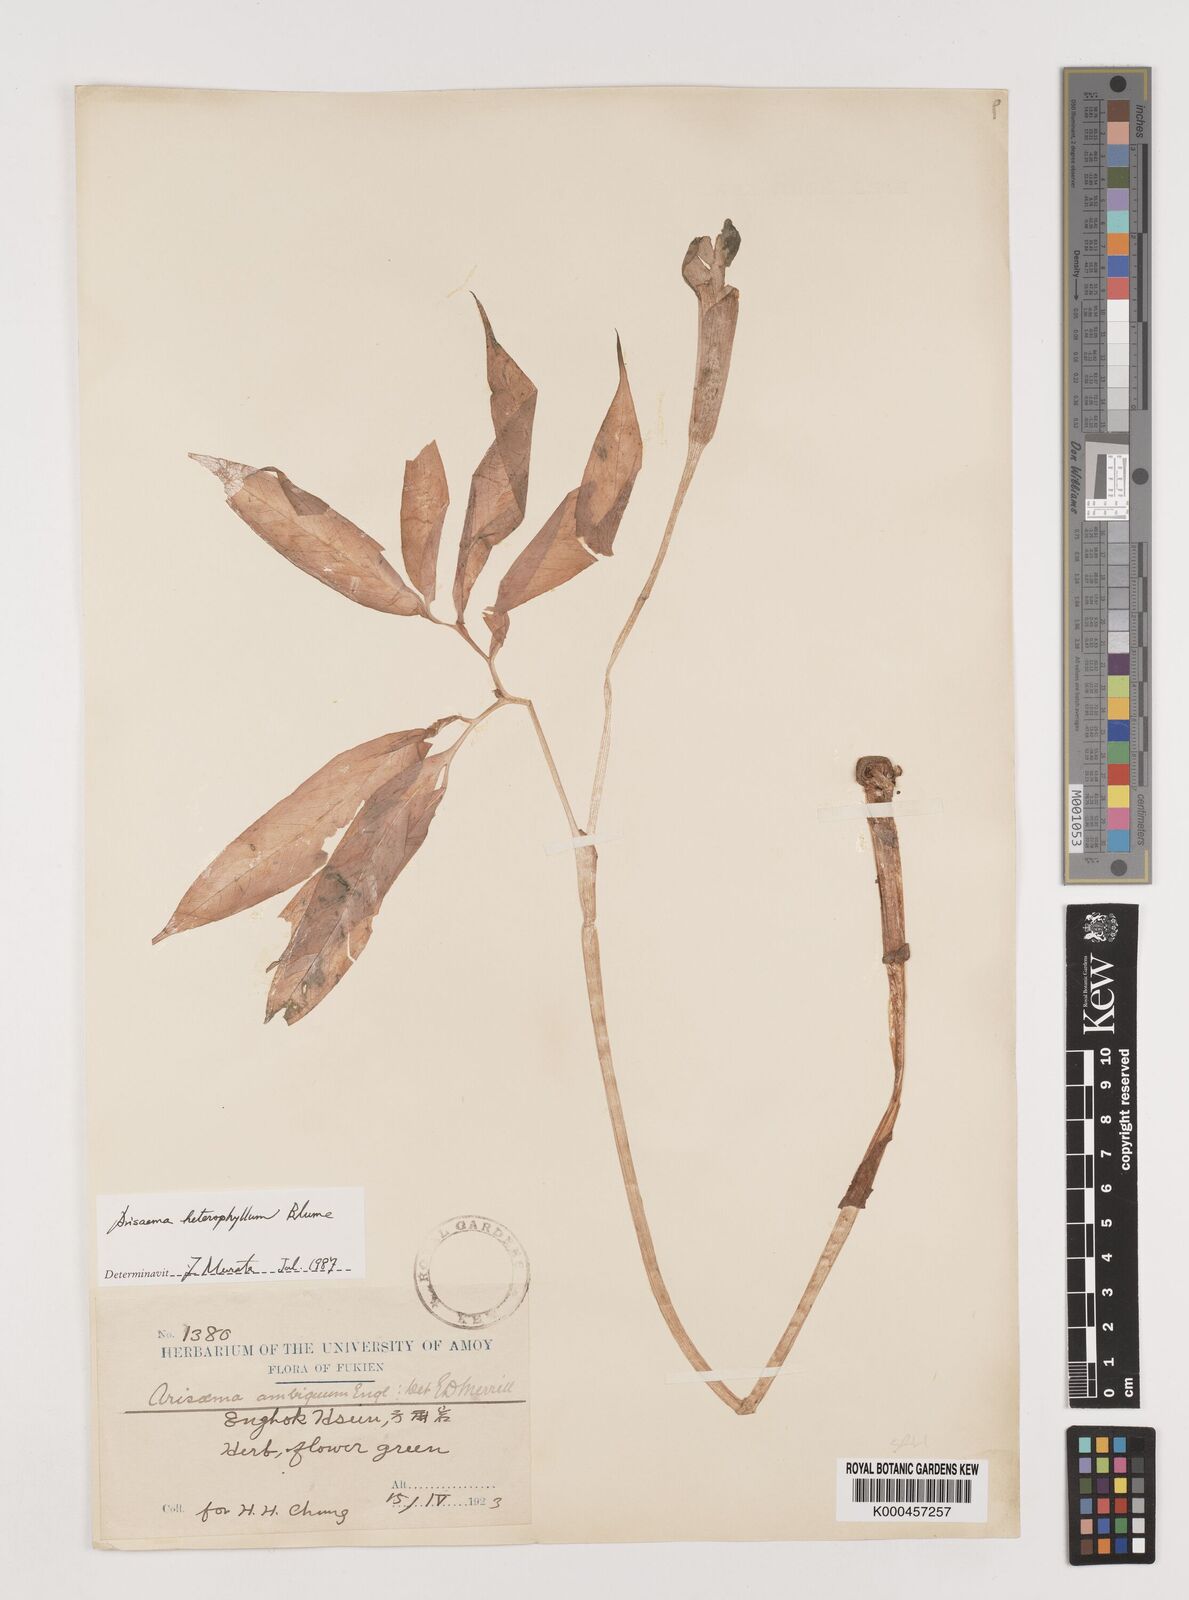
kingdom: Plantae
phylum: Tracheophyta
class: Liliopsida
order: Alismatales
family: Araceae
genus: Arisaema
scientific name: Arisaema heterophyllum
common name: Dancing crane cobra lily
